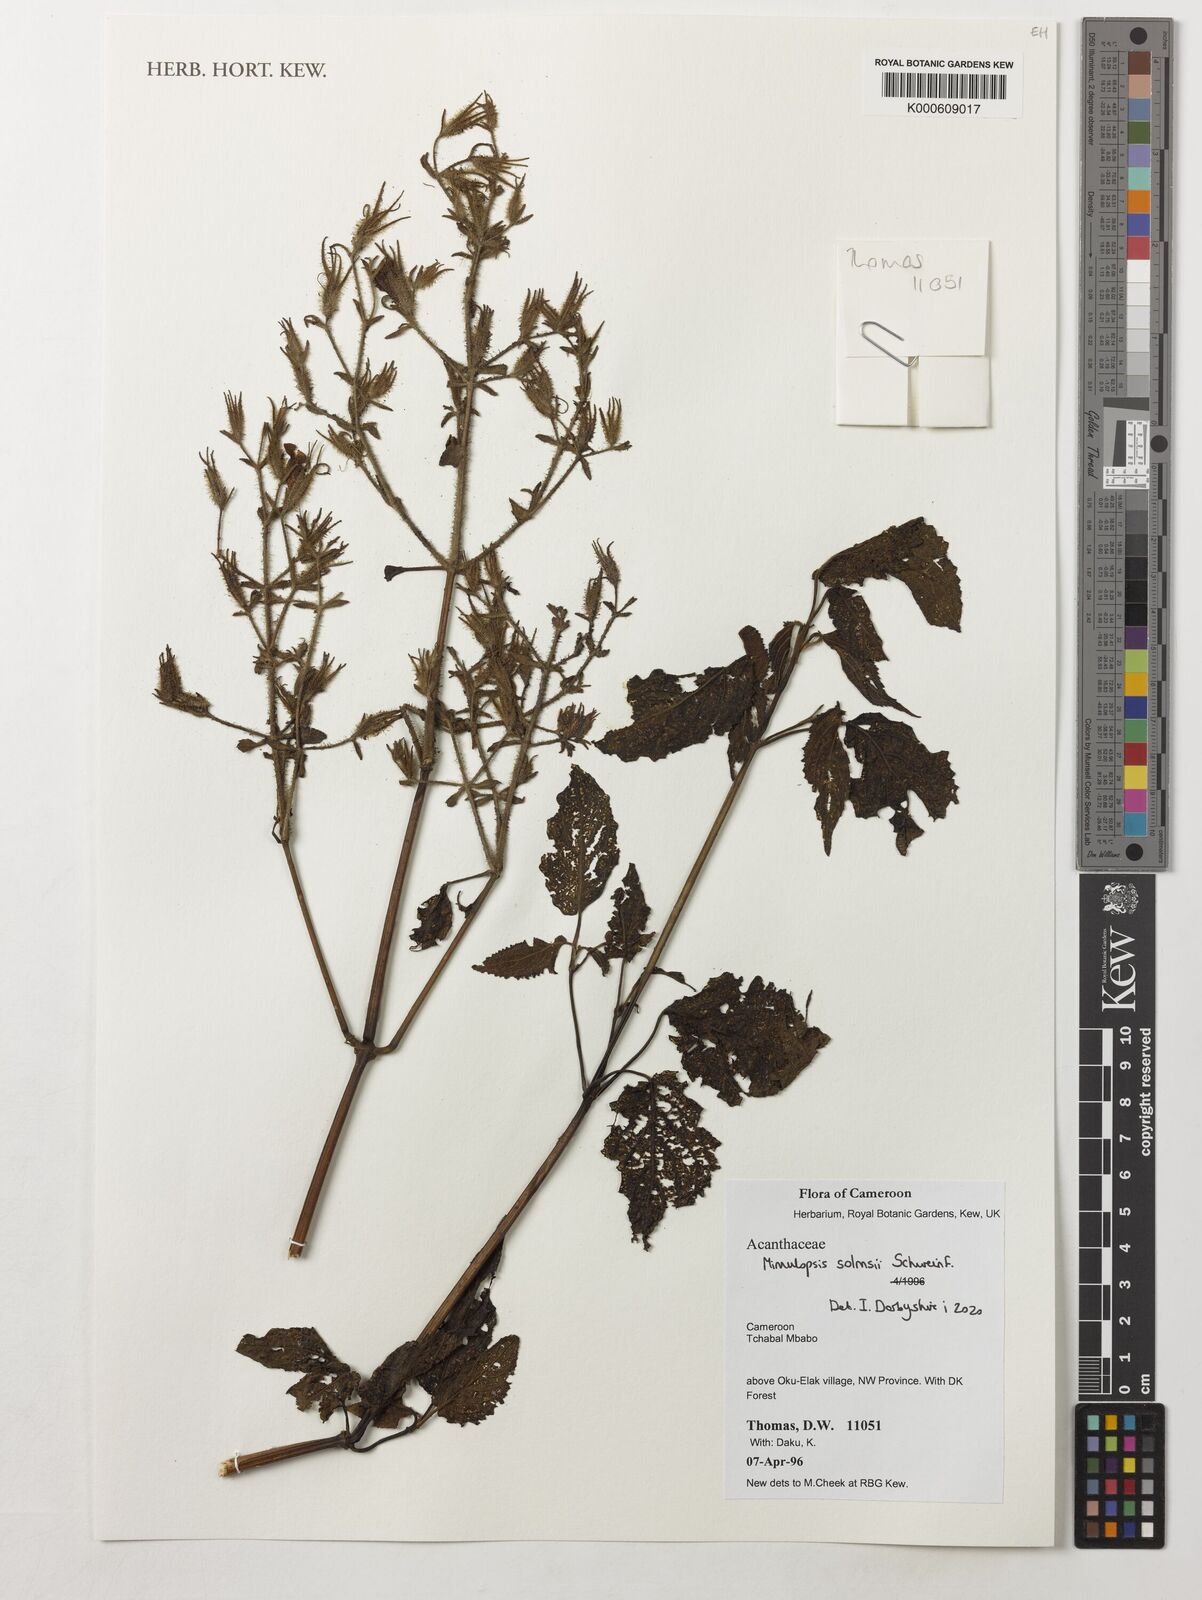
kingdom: Plantae
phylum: Tracheophyta
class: Magnoliopsida
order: Lamiales
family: Acanthaceae
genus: Mimulopsis
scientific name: Mimulopsis solmsii
